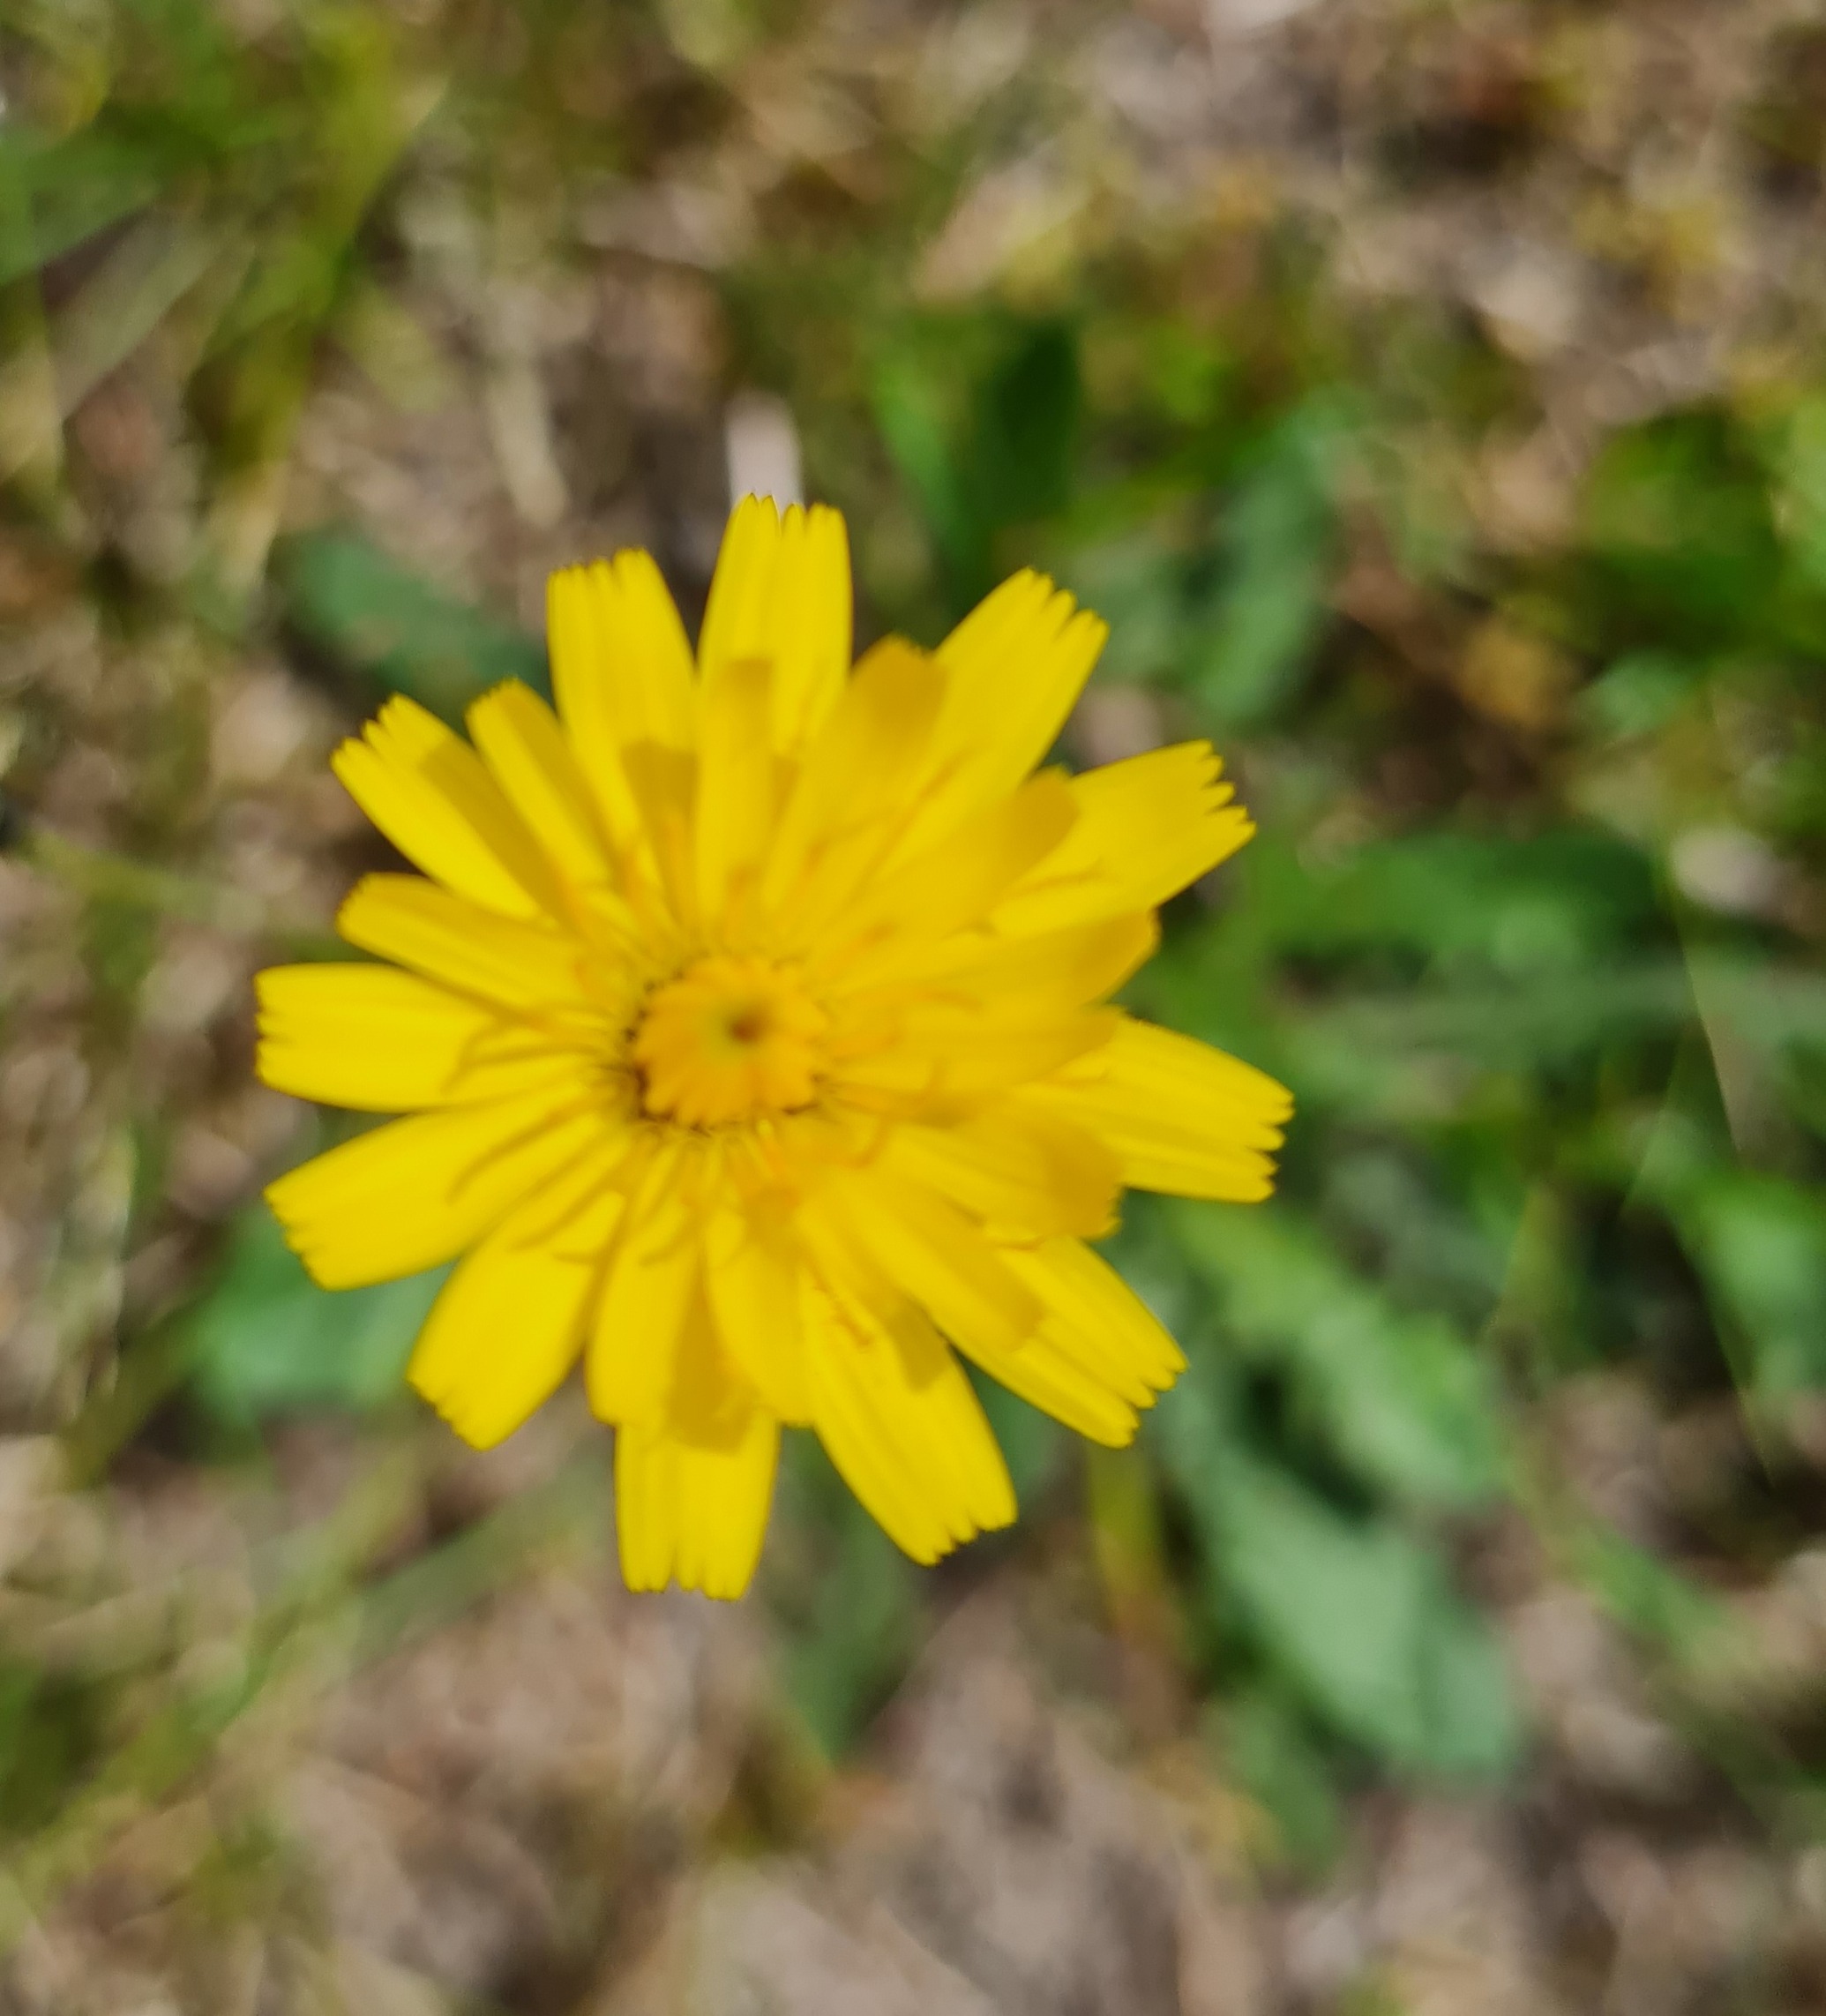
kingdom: Plantae
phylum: Tracheophyta
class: Magnoliopsida
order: Asterales
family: Asteraceae
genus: Hypochaeris
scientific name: Hypochaeris radicata
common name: Almindelig kongepen
